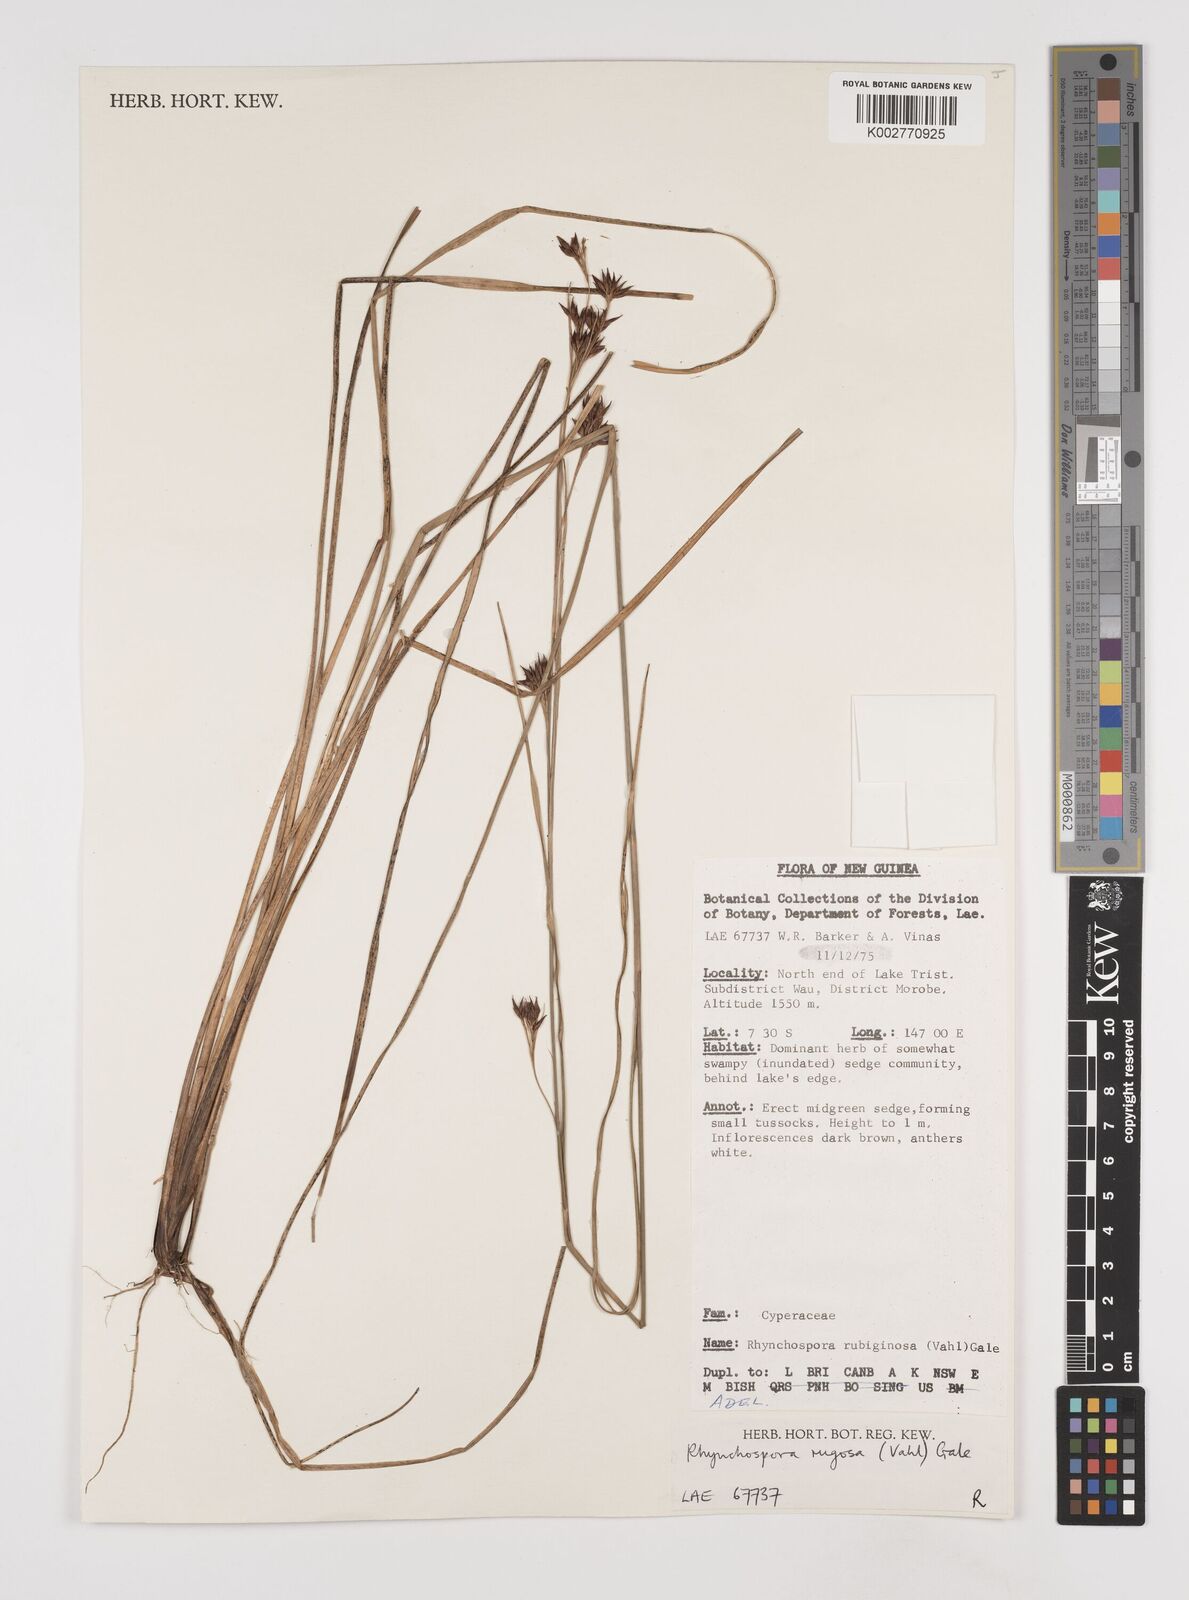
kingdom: Plantae
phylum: Tracheophyta
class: Liliopsida
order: Poales
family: Cyperaceae
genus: Rhynchospora
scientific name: Rhynchospora rugosa
